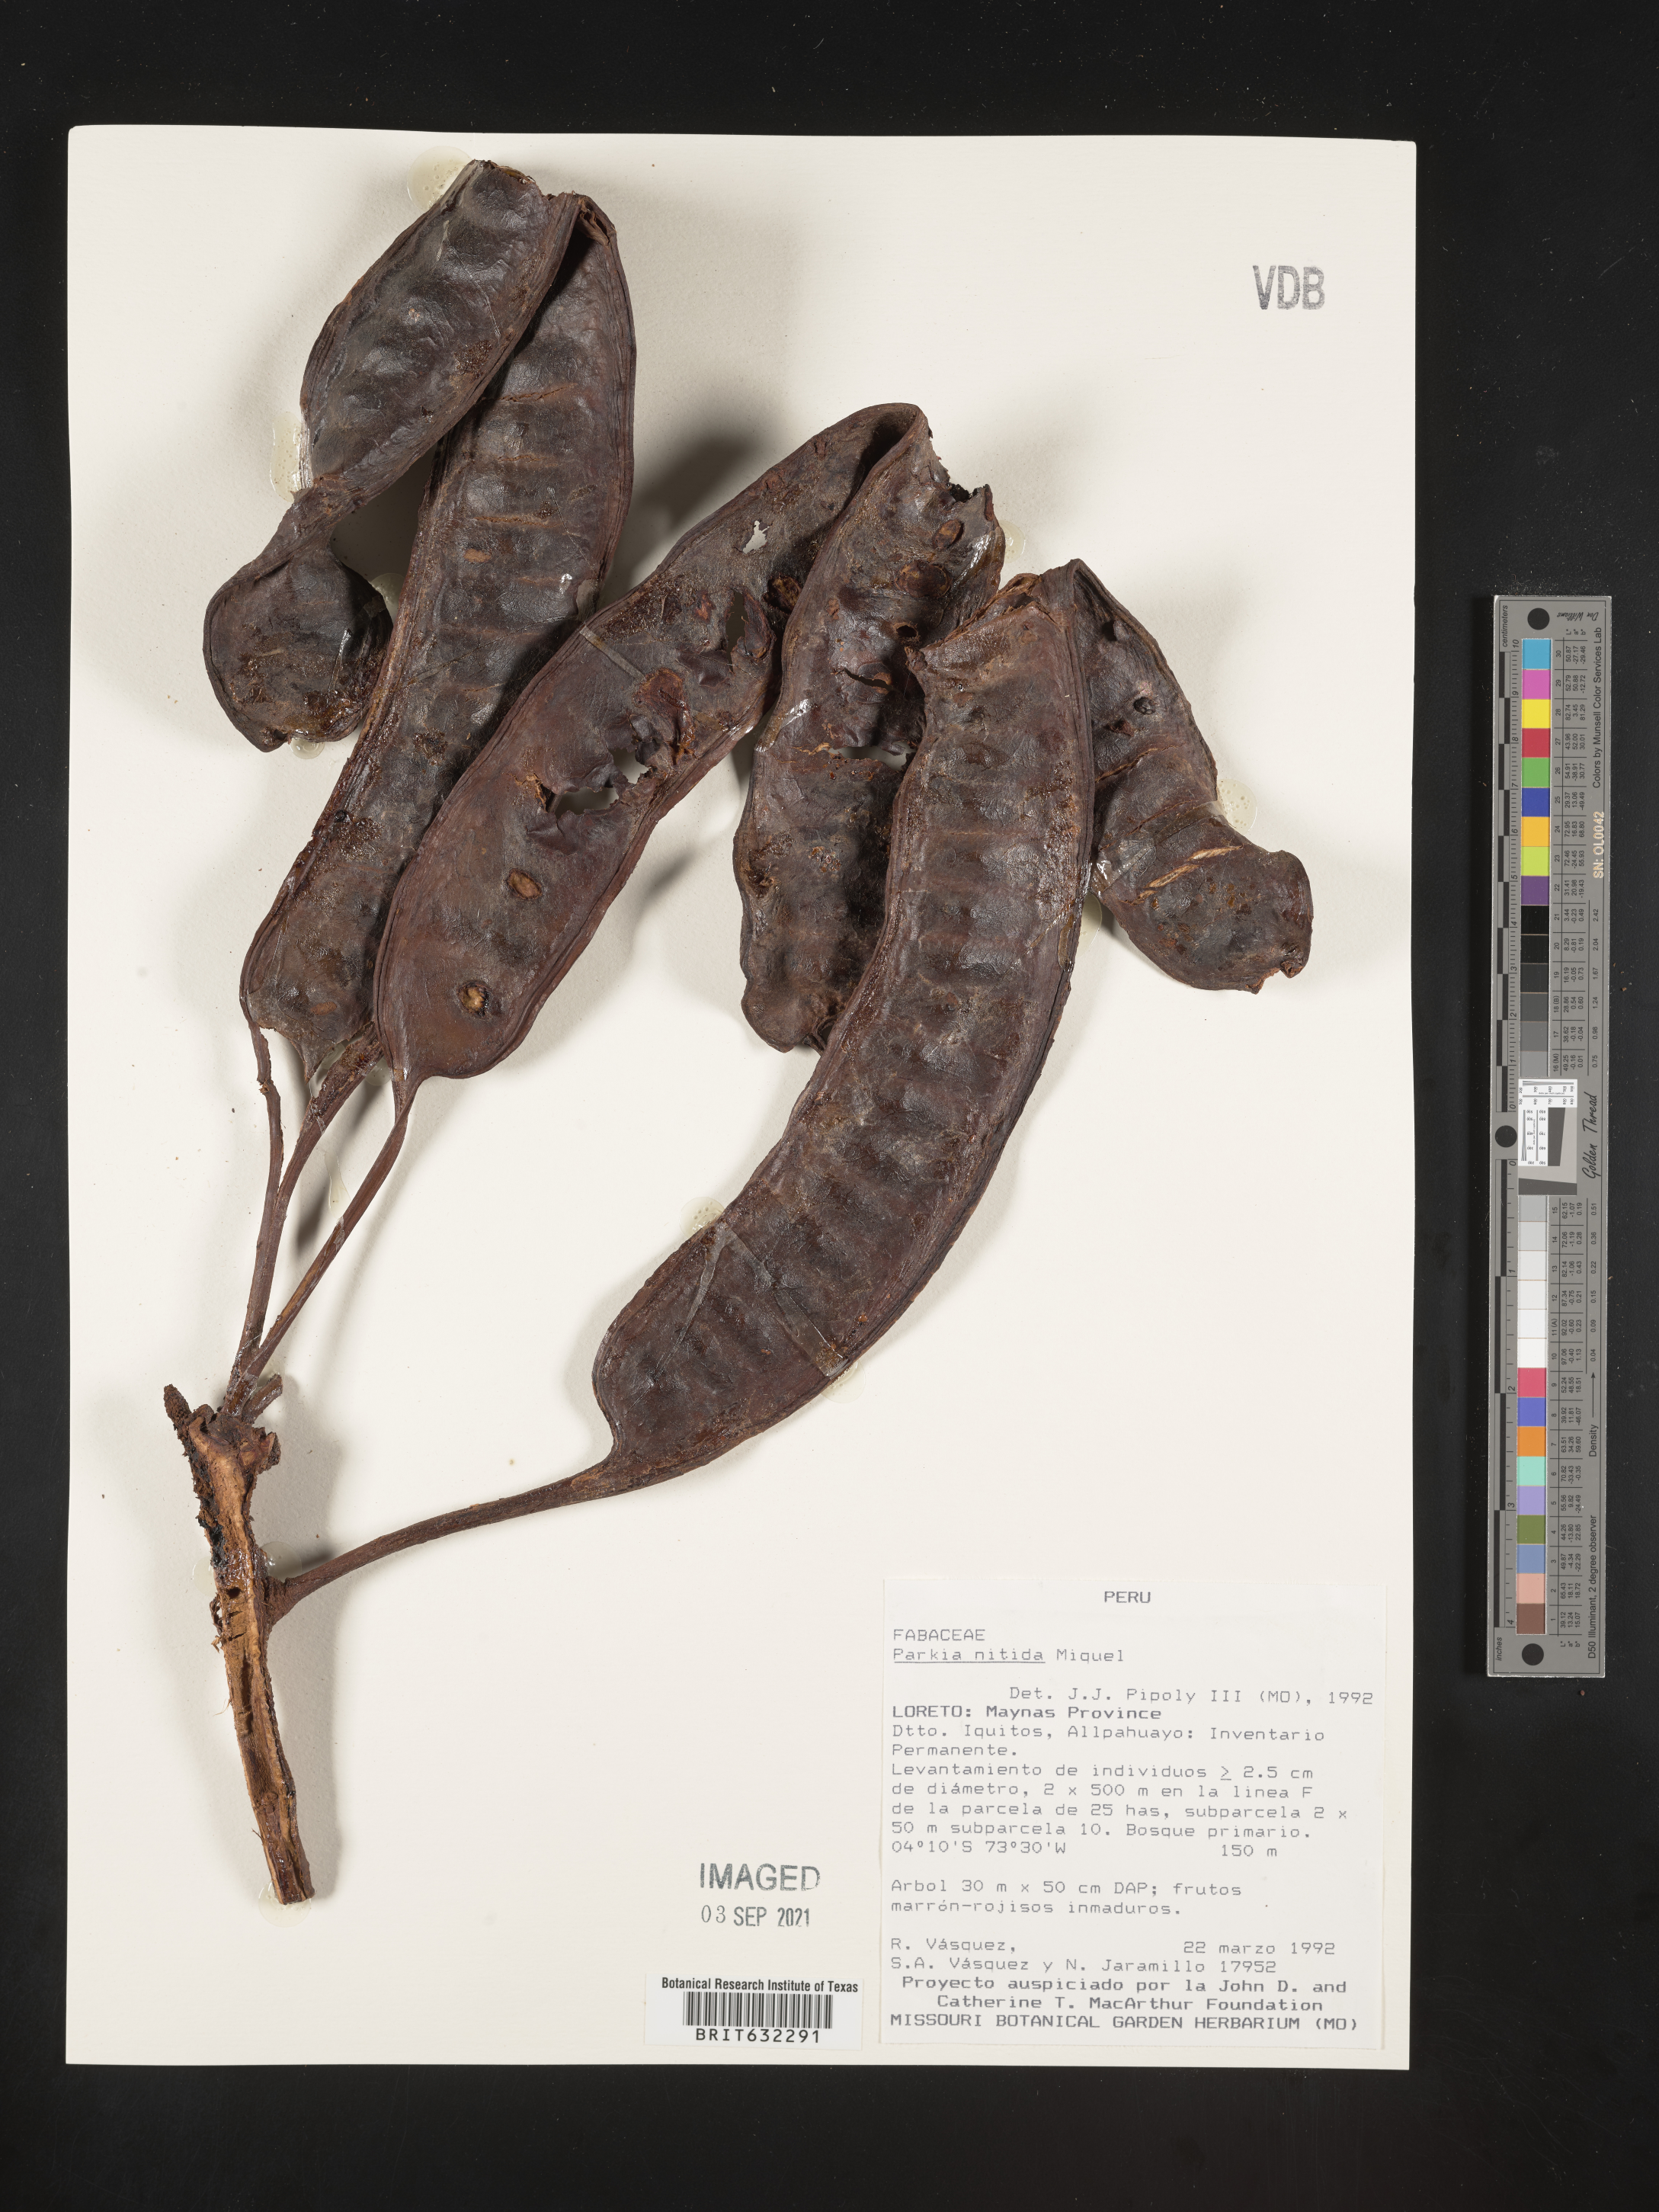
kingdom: Plantae
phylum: Tracheophyta
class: Magnoliopsida
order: Fabales
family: Fabaceae
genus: Parkia
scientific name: Parkia
